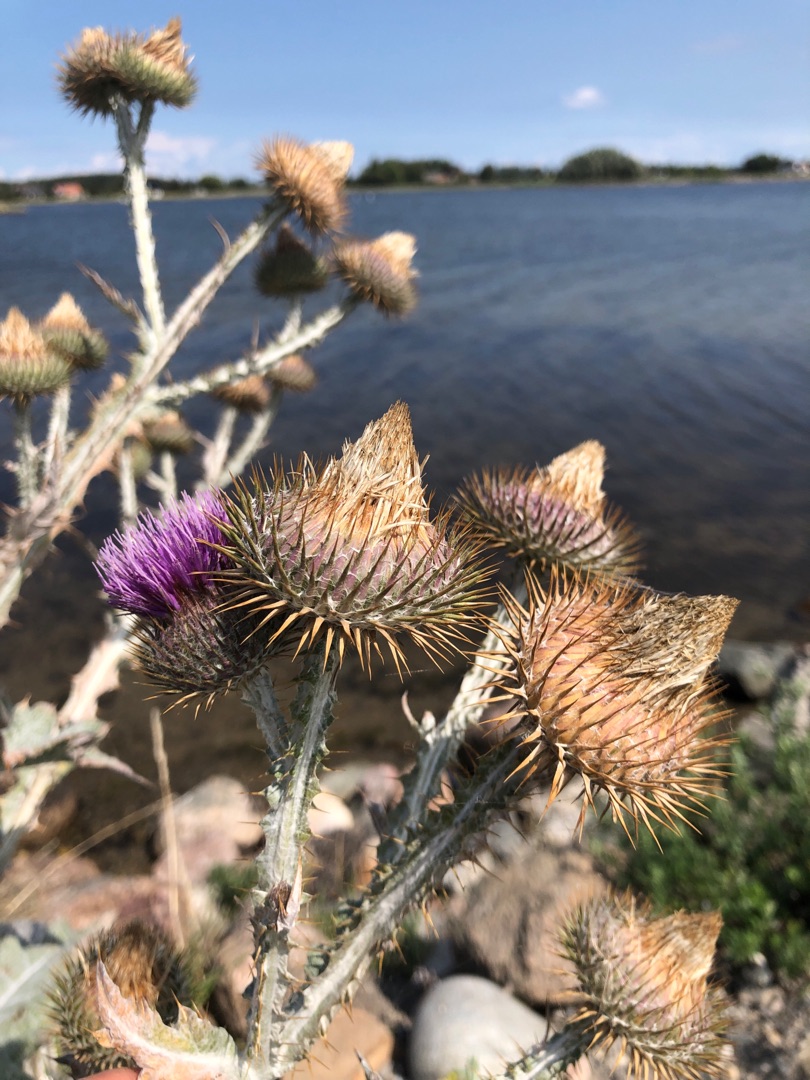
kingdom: Plantae
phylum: Tracheophyta
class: Magnoliopsida
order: Asterales
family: Asteraceae
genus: Onopordum
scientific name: Onopordum acanthium
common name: Æselfoder
